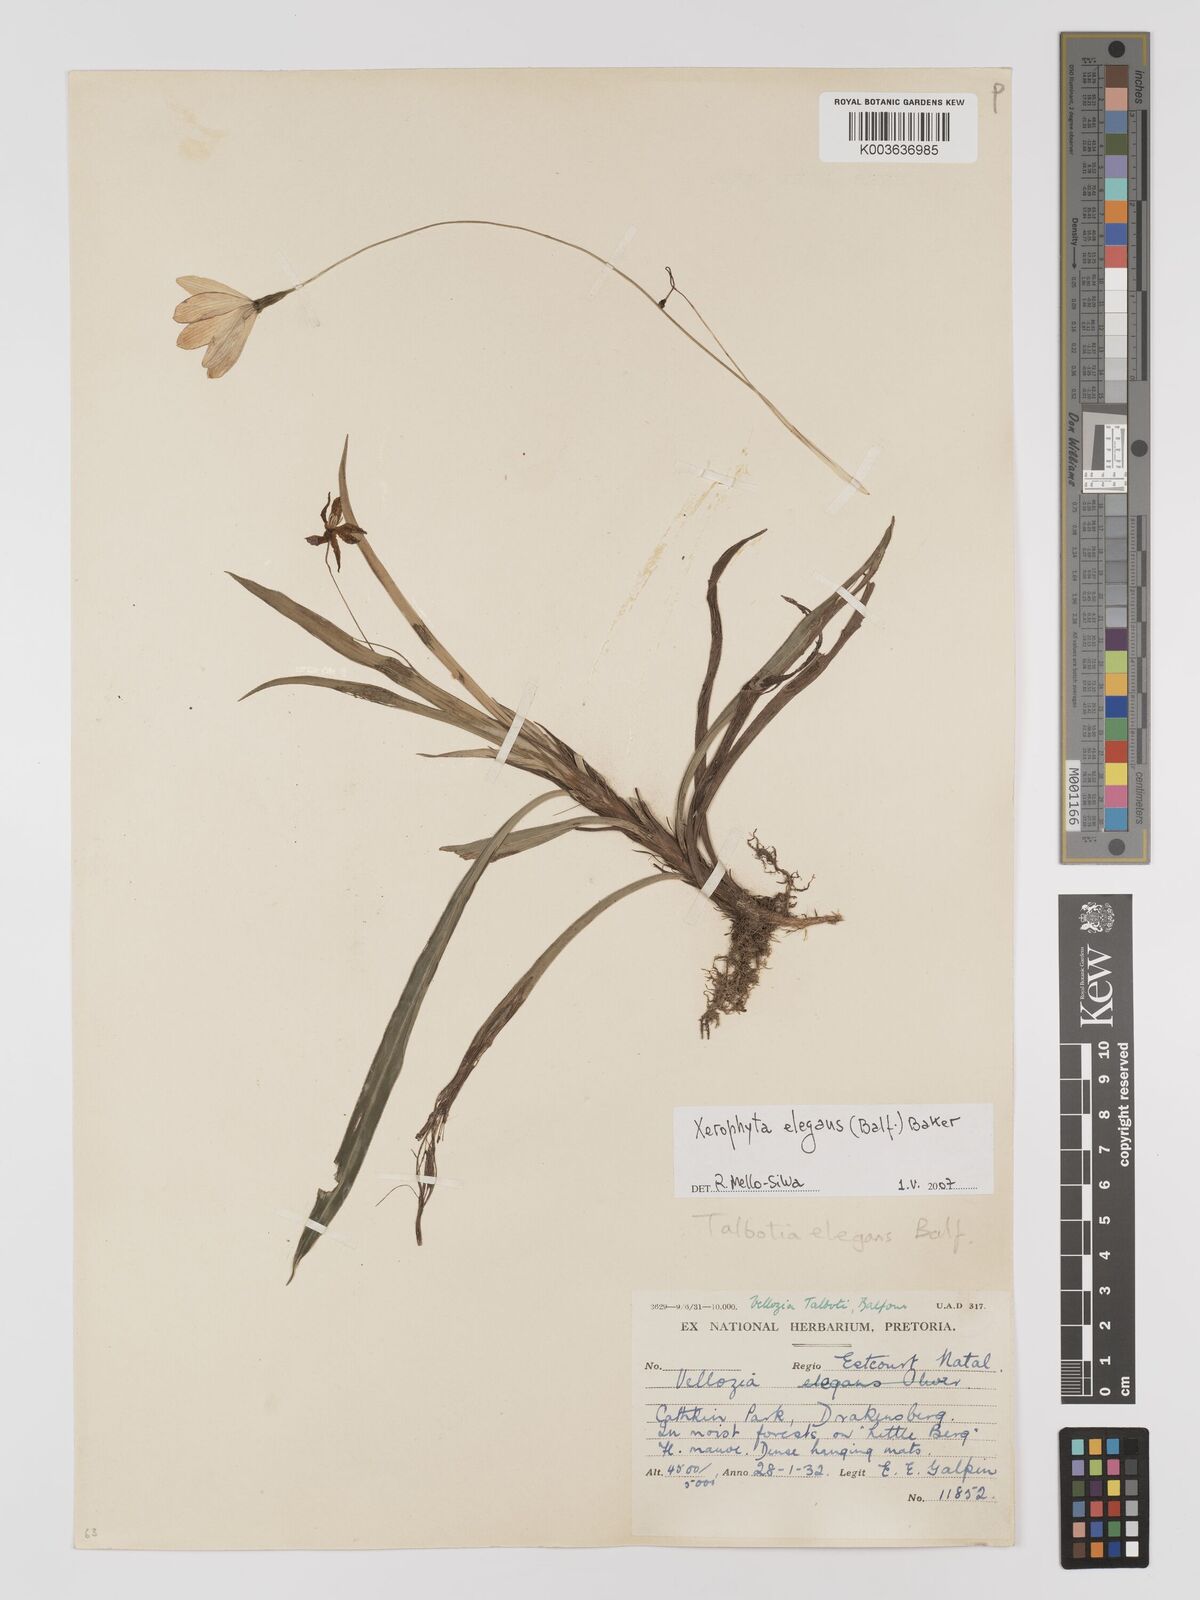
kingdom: Plantae
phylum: Tracheophyta
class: Liliopsida
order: Pandanales
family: Velloziaceae
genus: Xerophyta
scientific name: Xerophyta elegans
